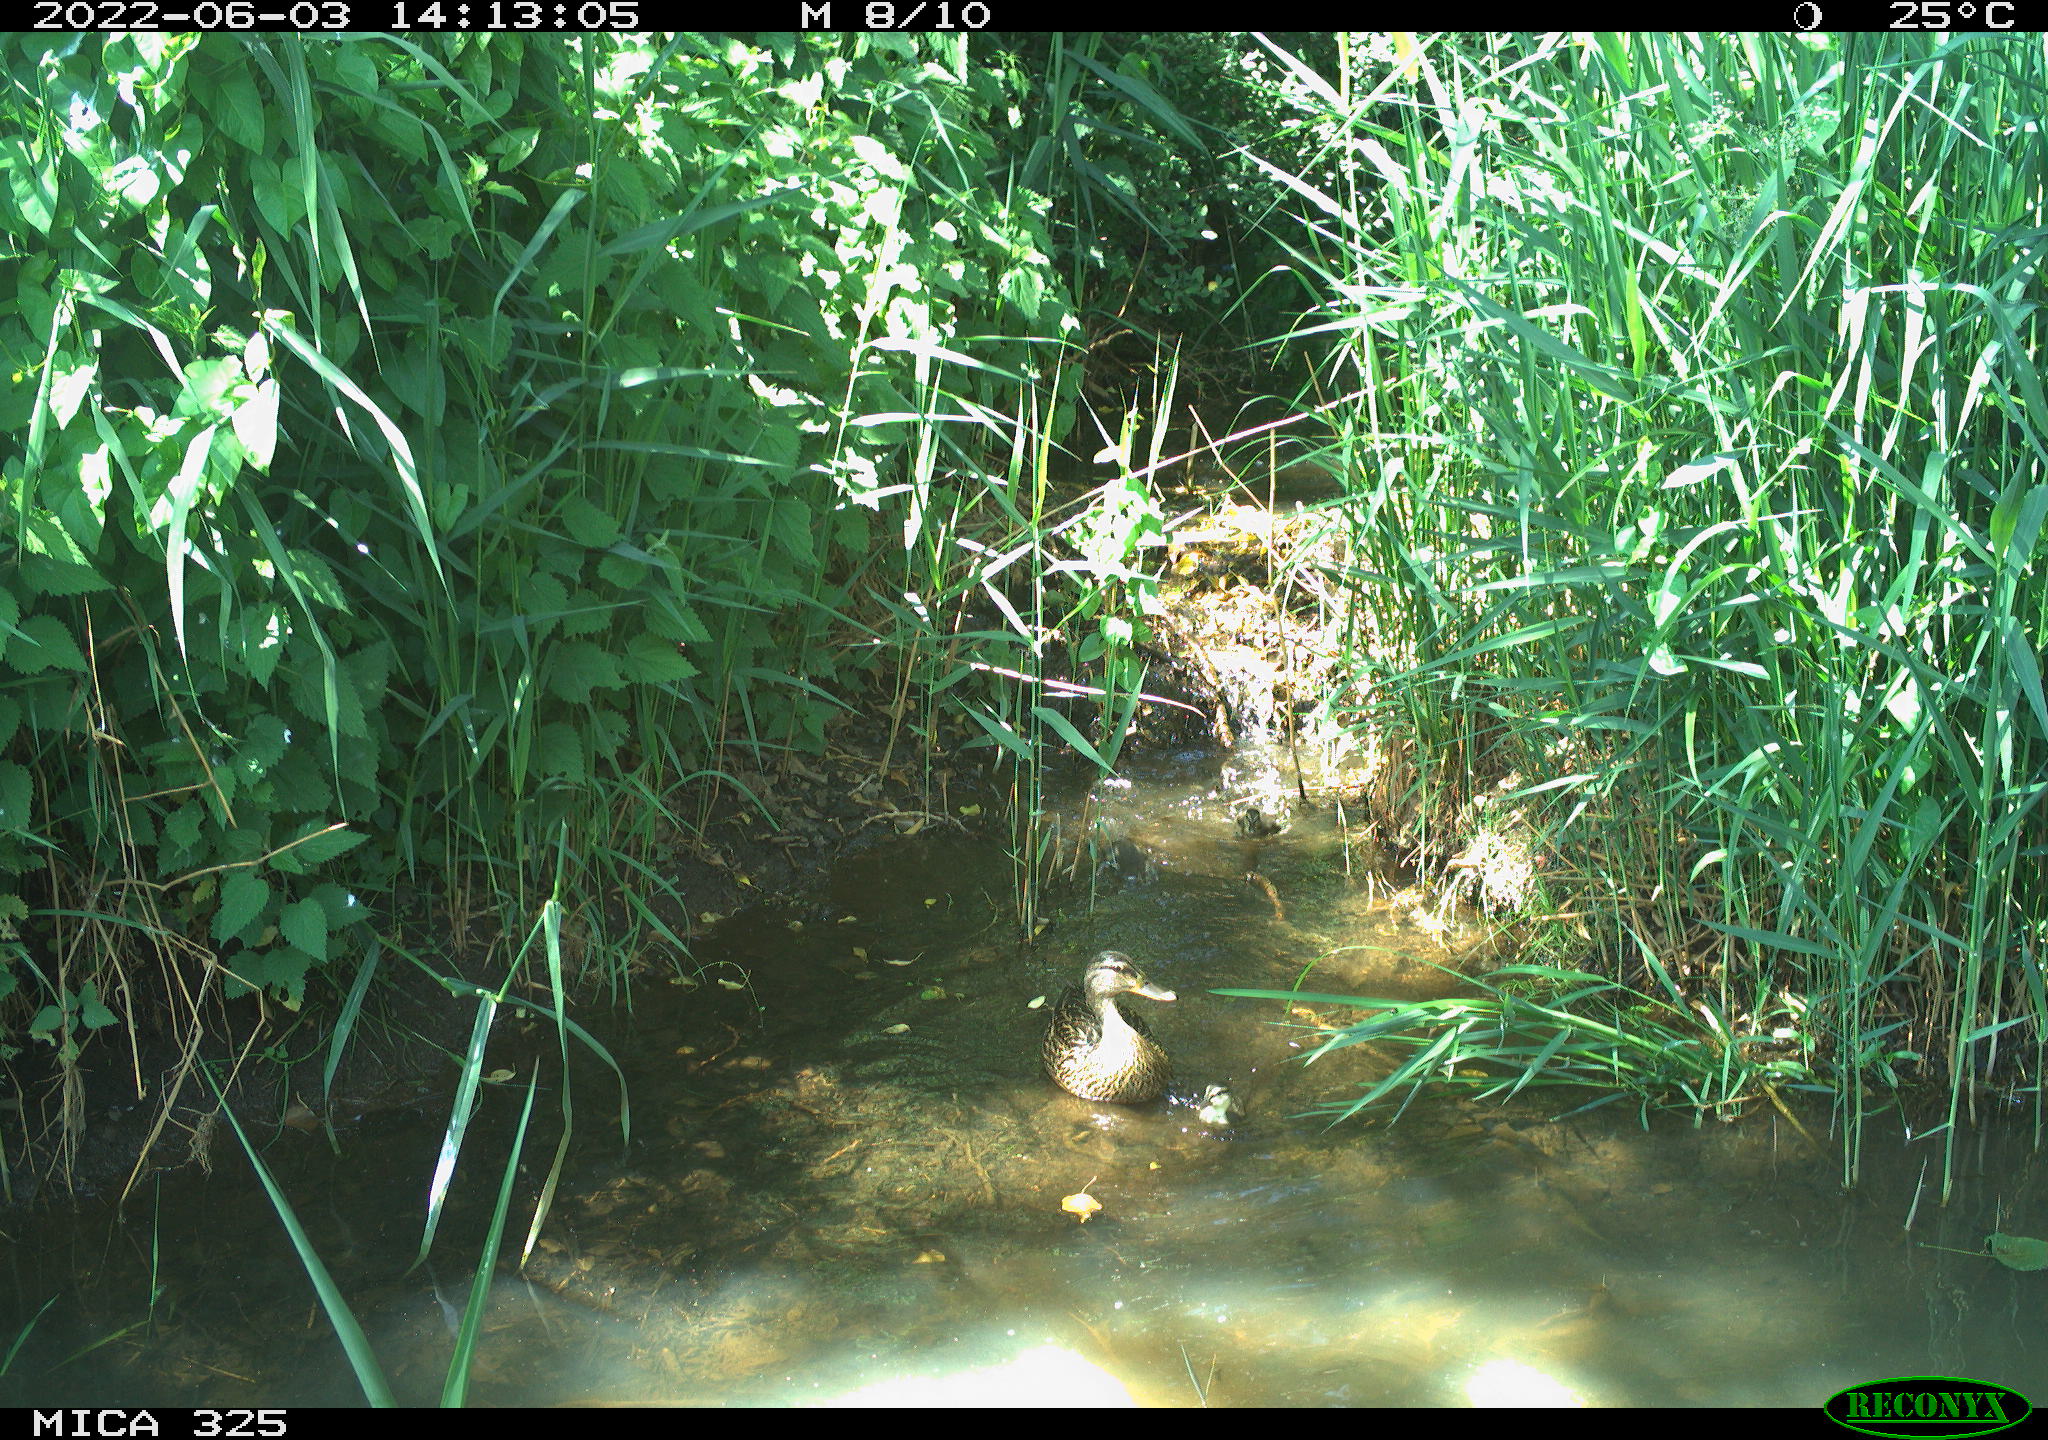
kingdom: Animalia
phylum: Chordata
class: Aves
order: Anseriformes
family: Anatidae
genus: Anas
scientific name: Anas platyrhynchos
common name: Mallard
